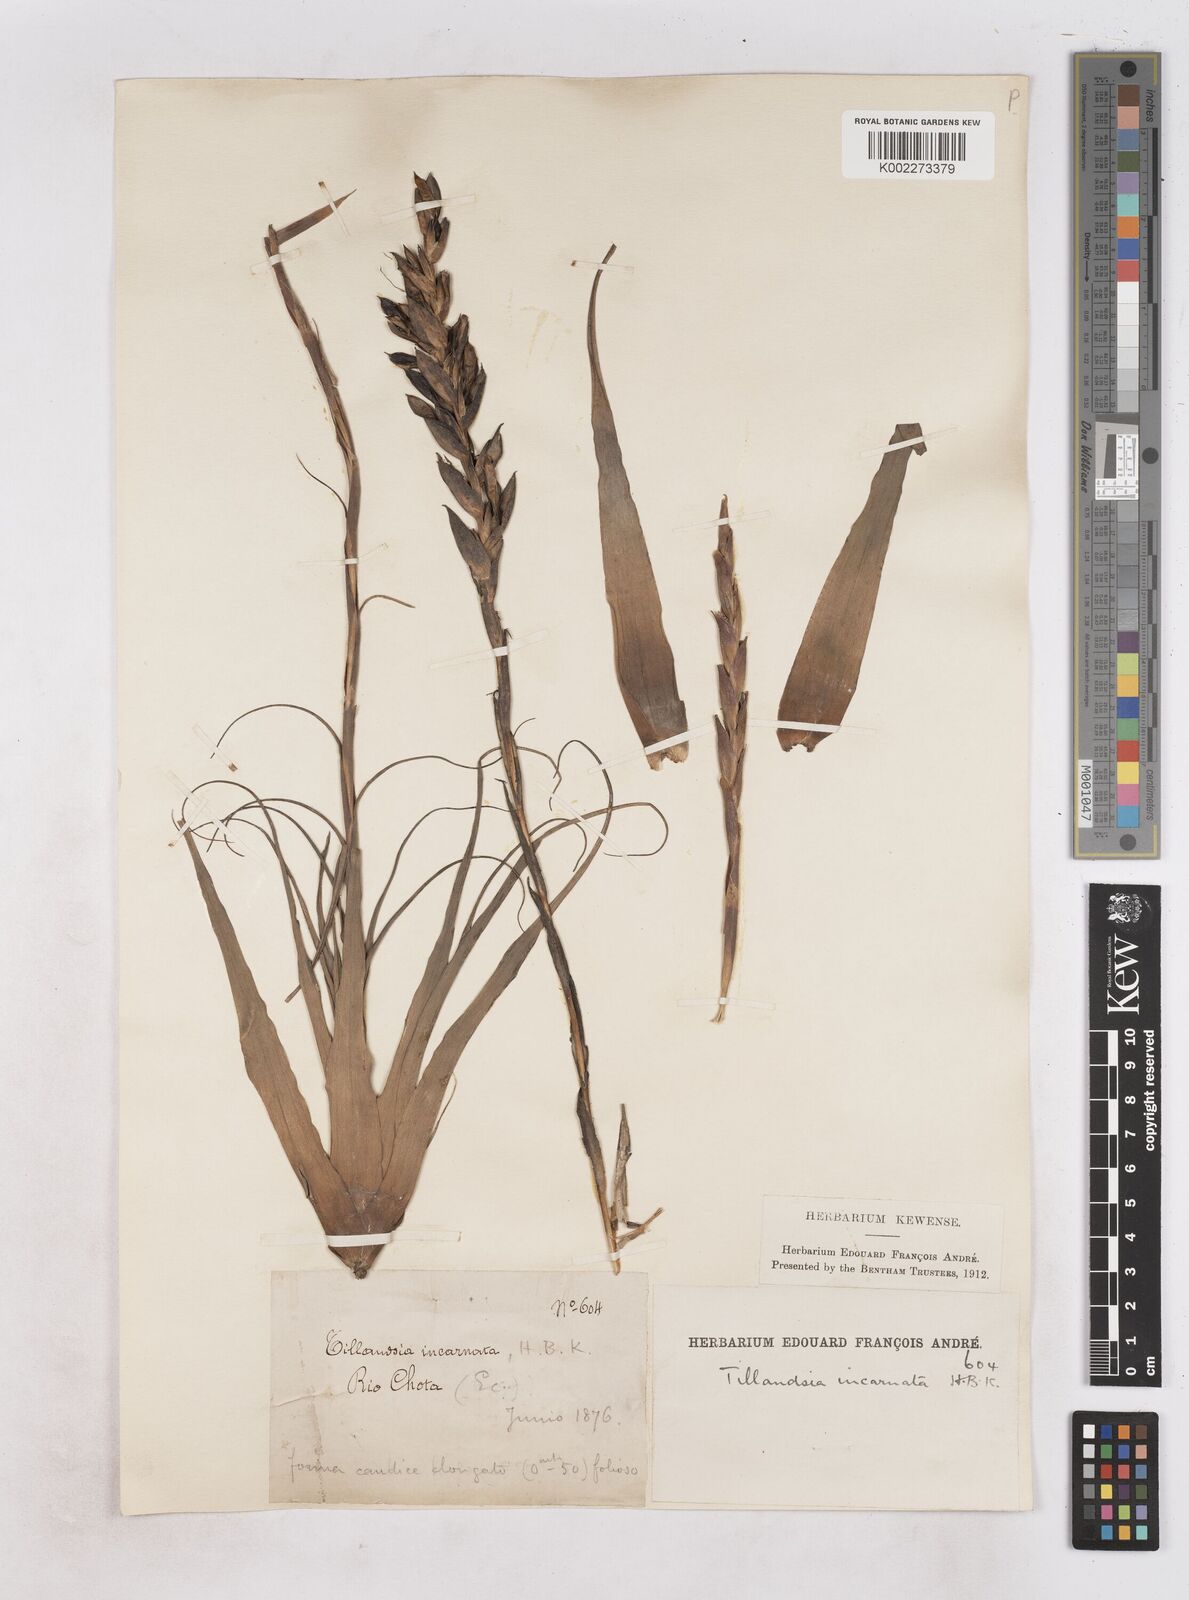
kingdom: Plantae
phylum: Tracheophyta
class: Liliopsida
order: Poales
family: Bromeliaceae
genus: Tillandsia
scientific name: Tillandsia incarnata
